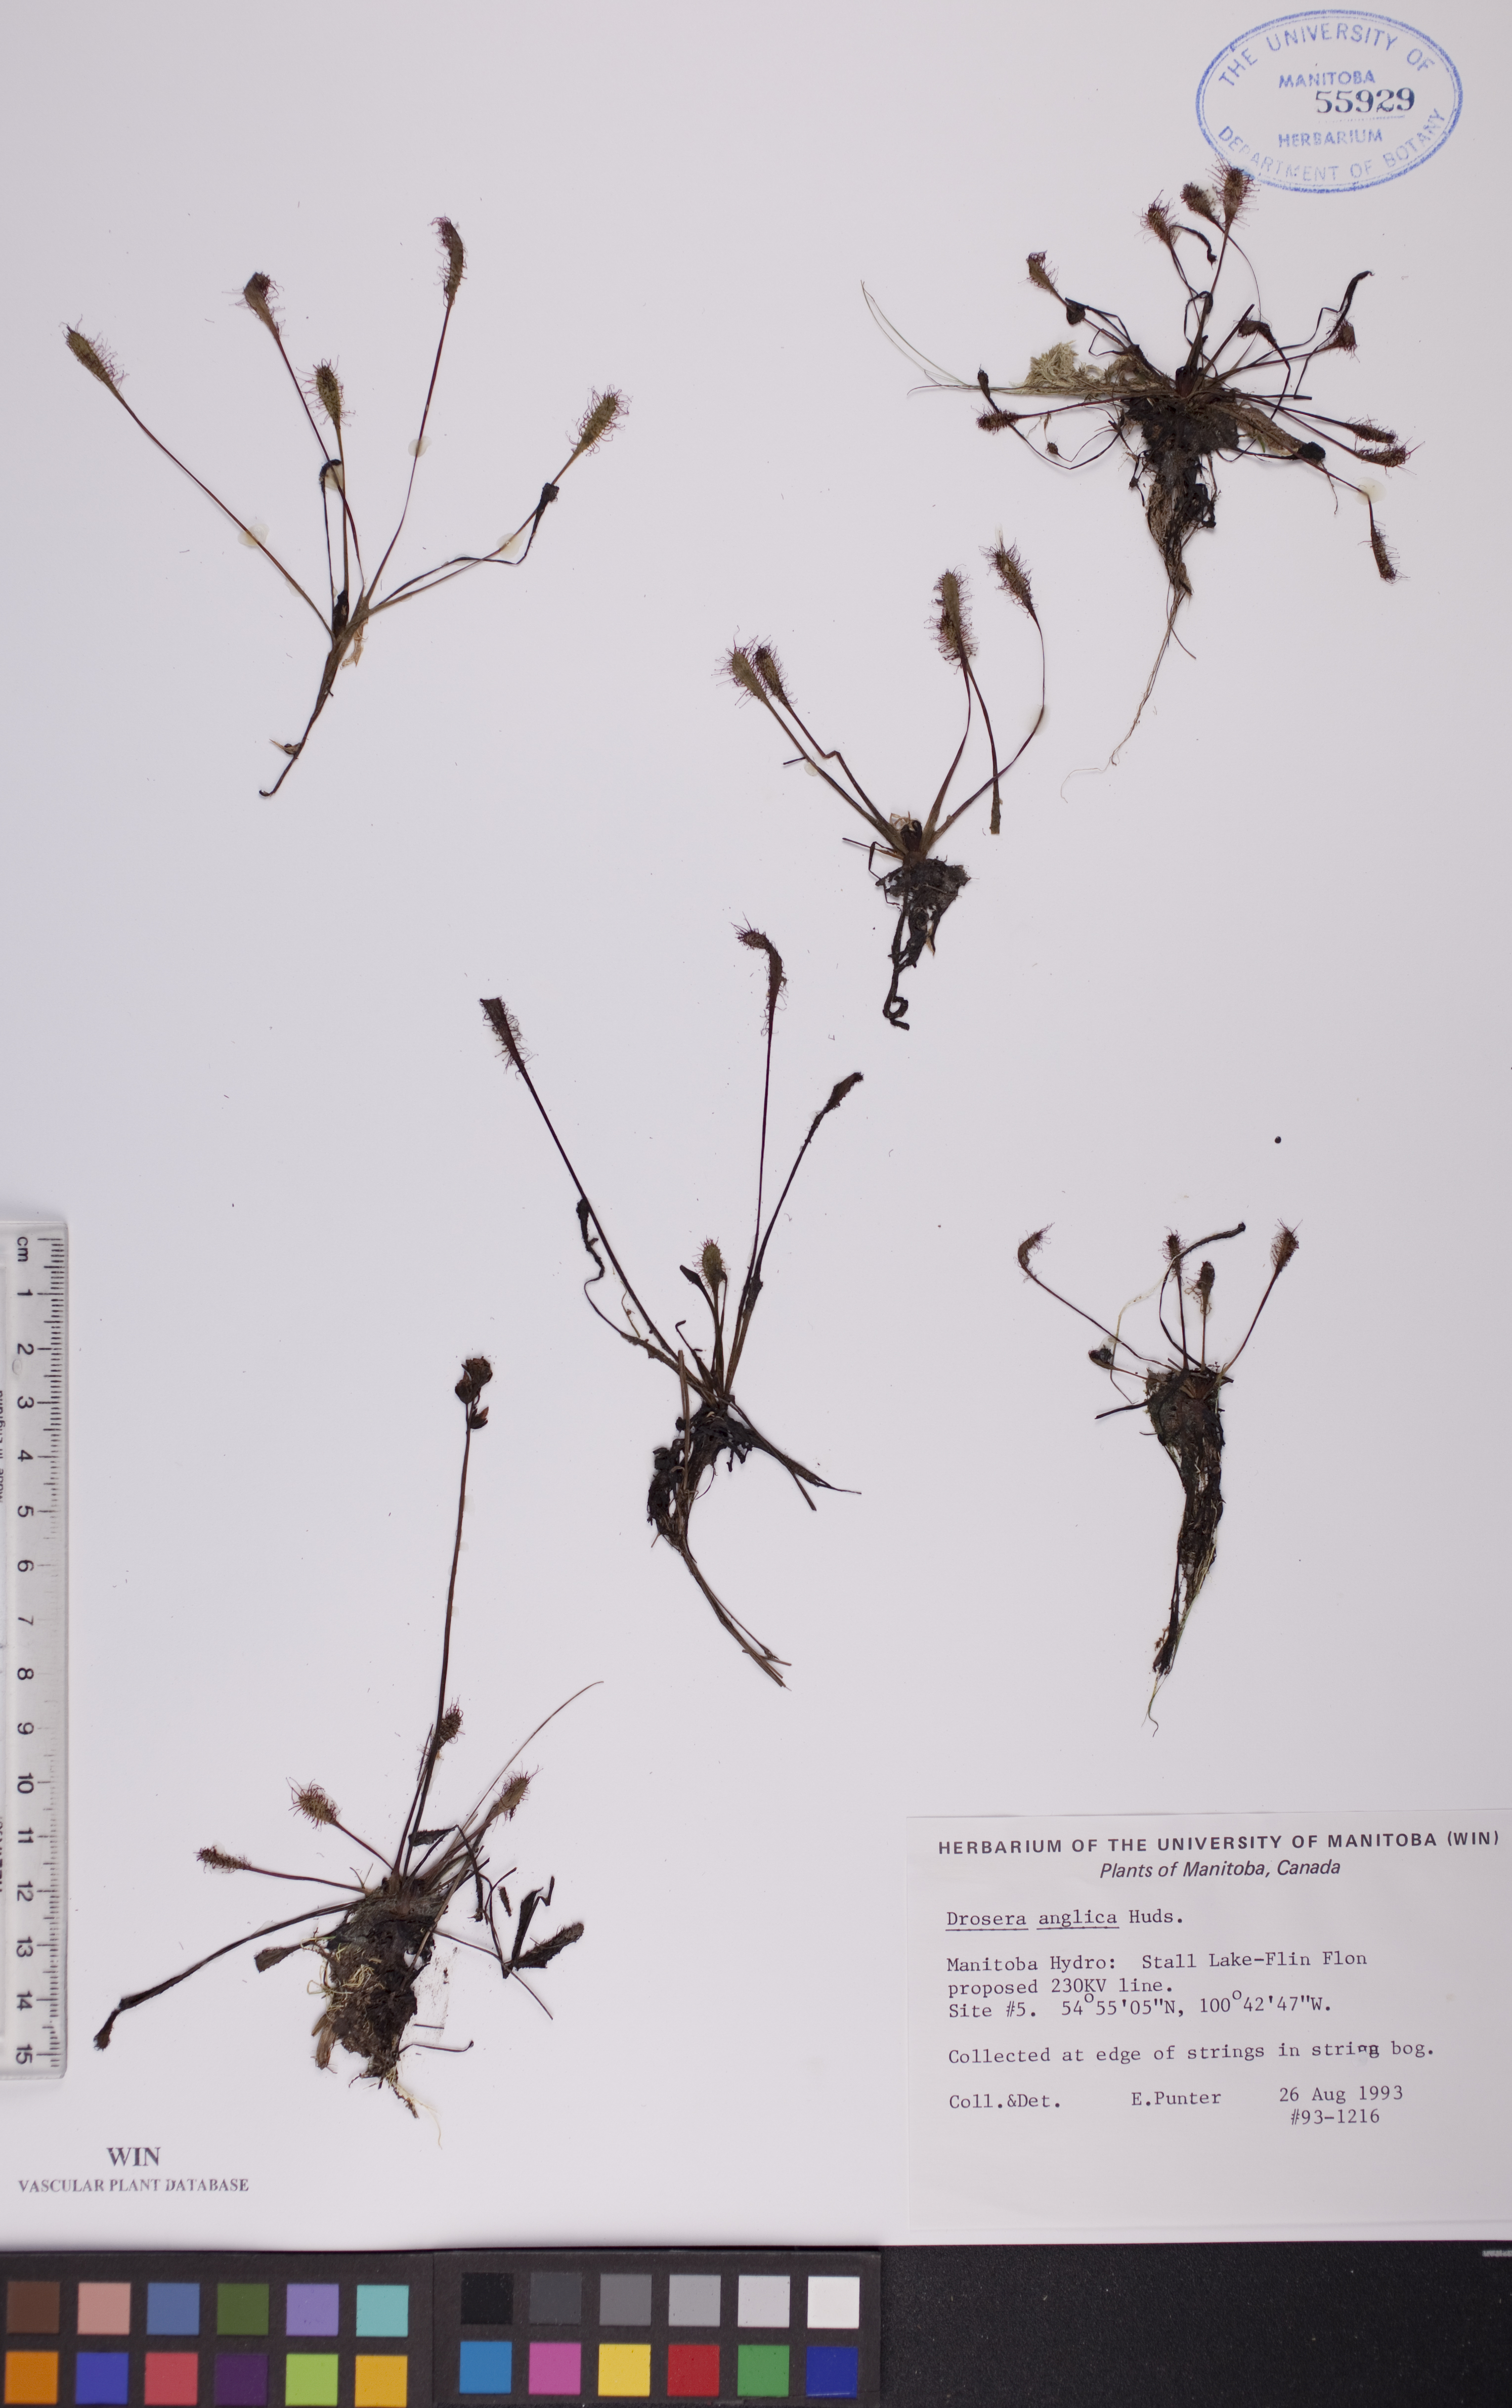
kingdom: Plantae
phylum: Tracheophyta
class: Magnoliopsida
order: Caryophyllales
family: Droseraceae
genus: Drosera
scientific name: Drosera anglica
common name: Great sundew
